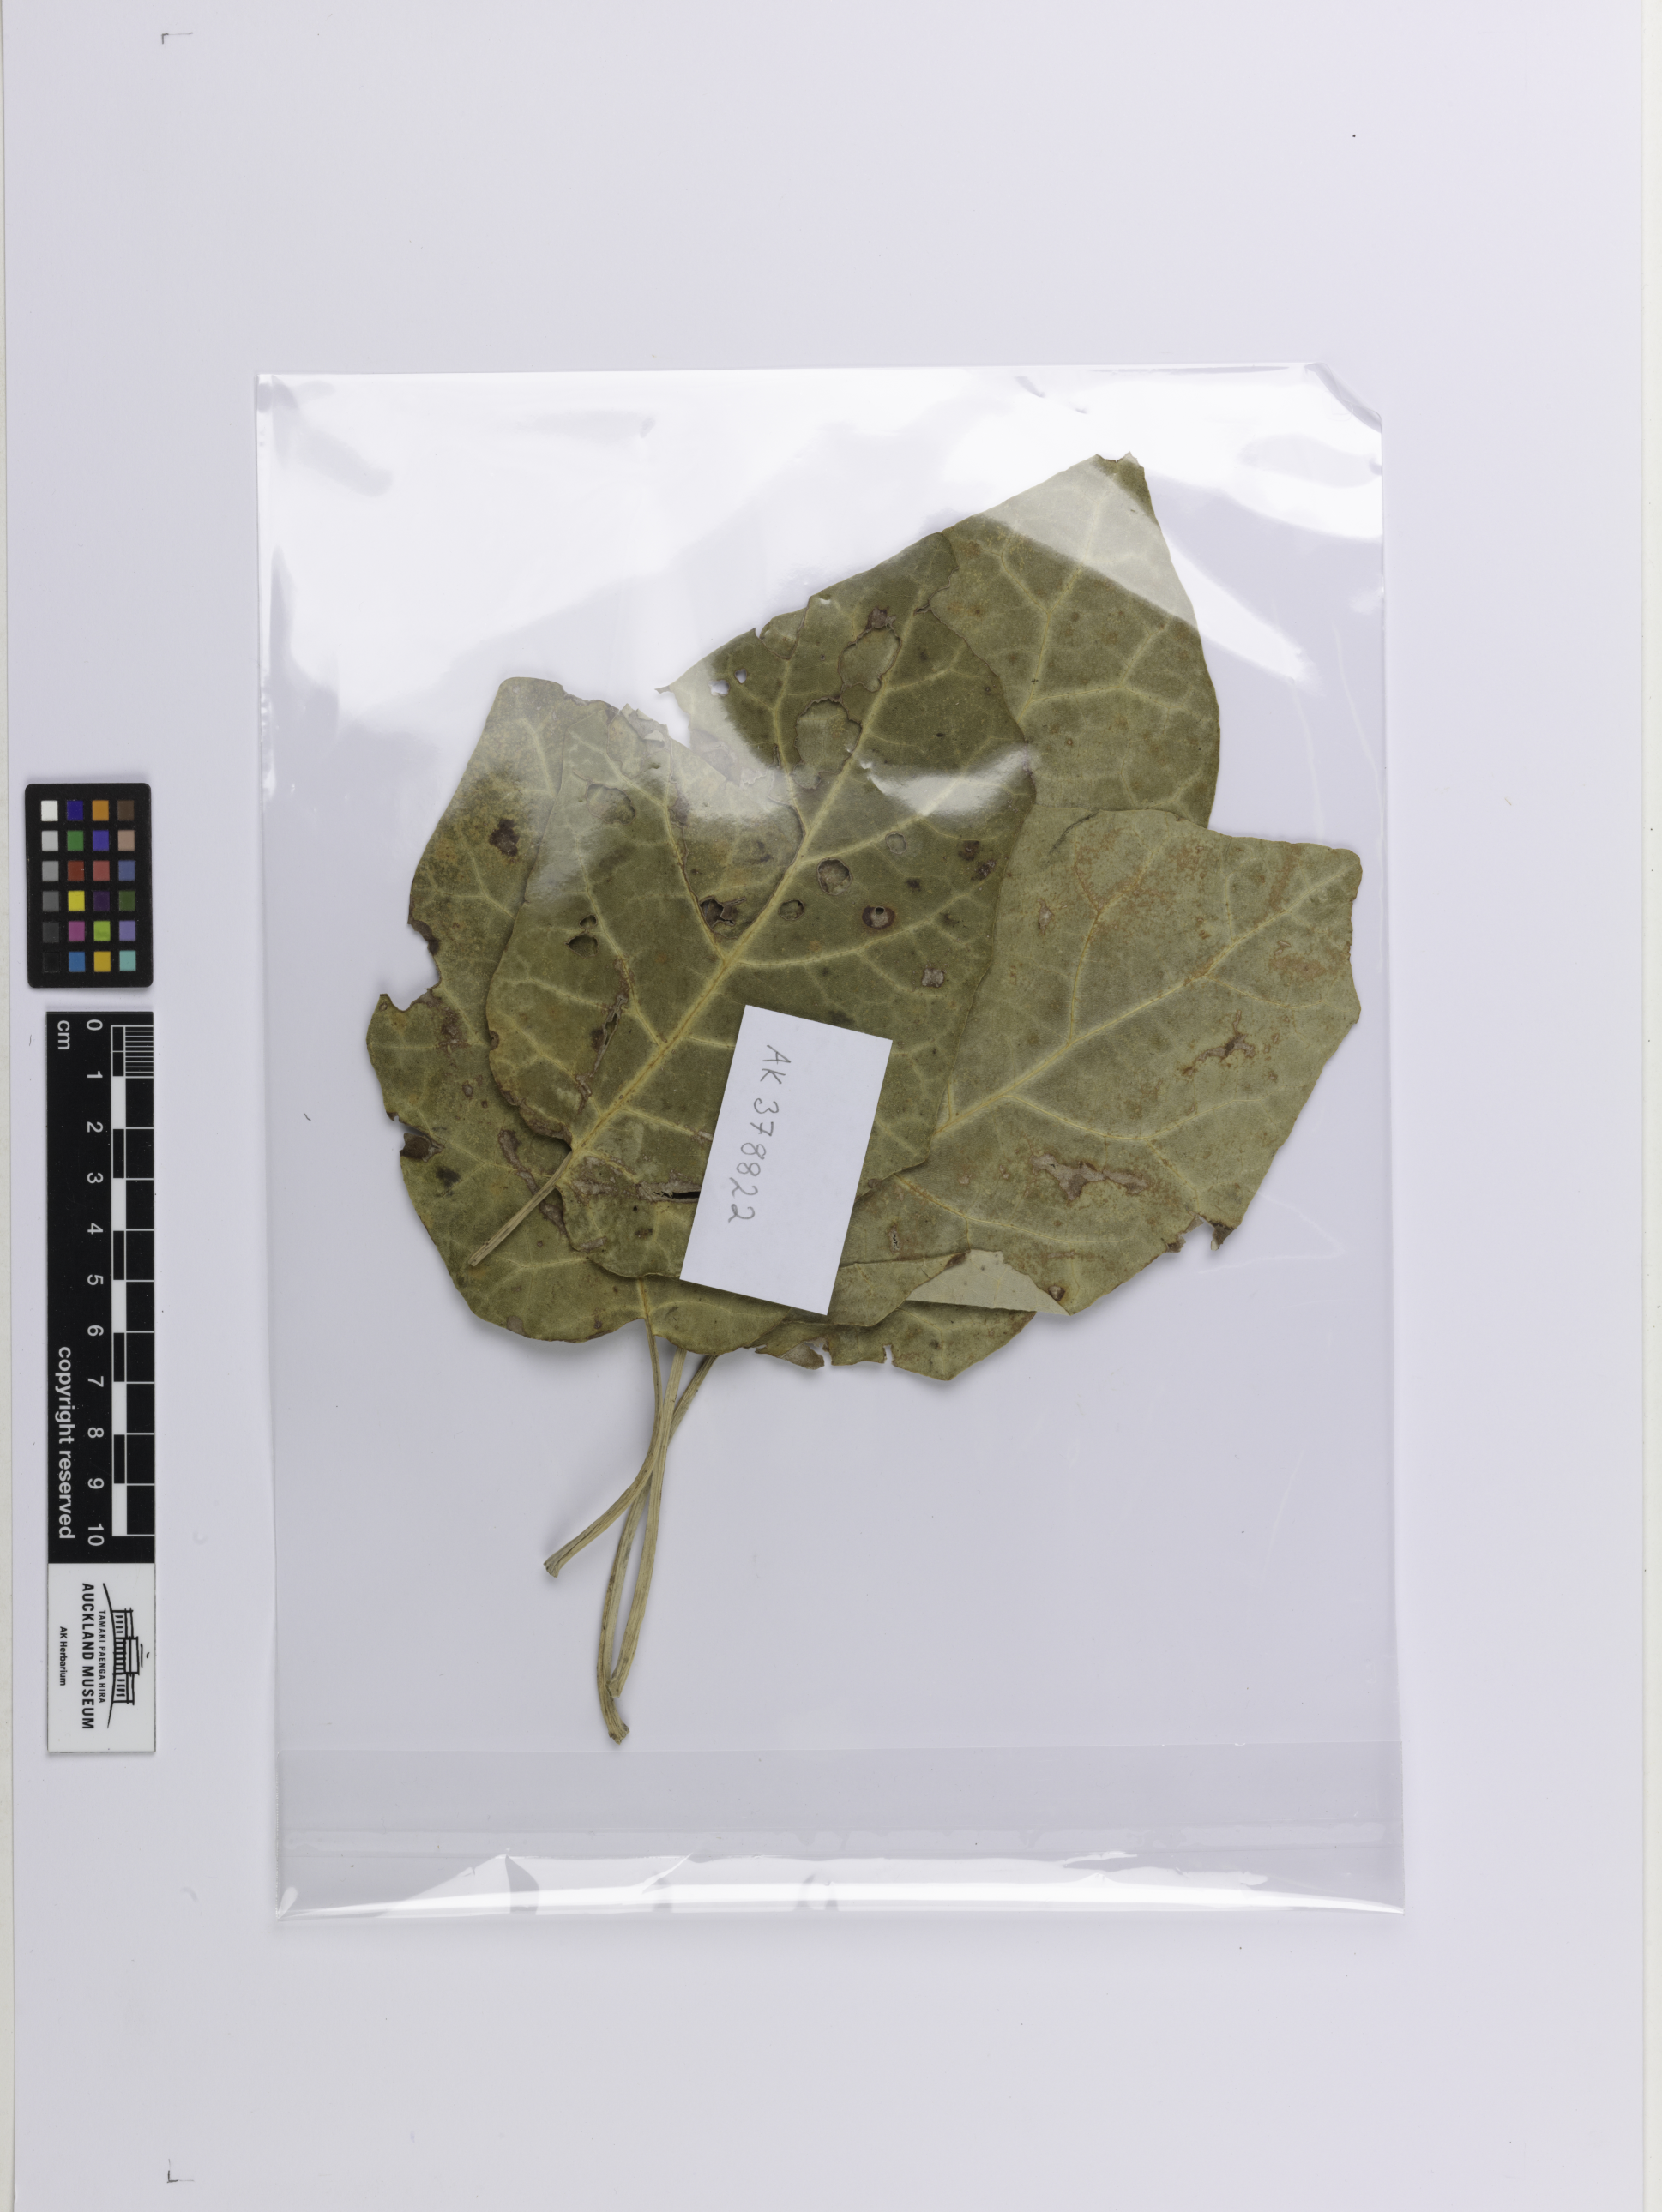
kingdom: Plantae
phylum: Tracheophyta
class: Magnoliopsida
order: Asterales
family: Asteraceae
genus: Brachyglottis
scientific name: Brachyglottis repanda
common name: Hedge ragwort
